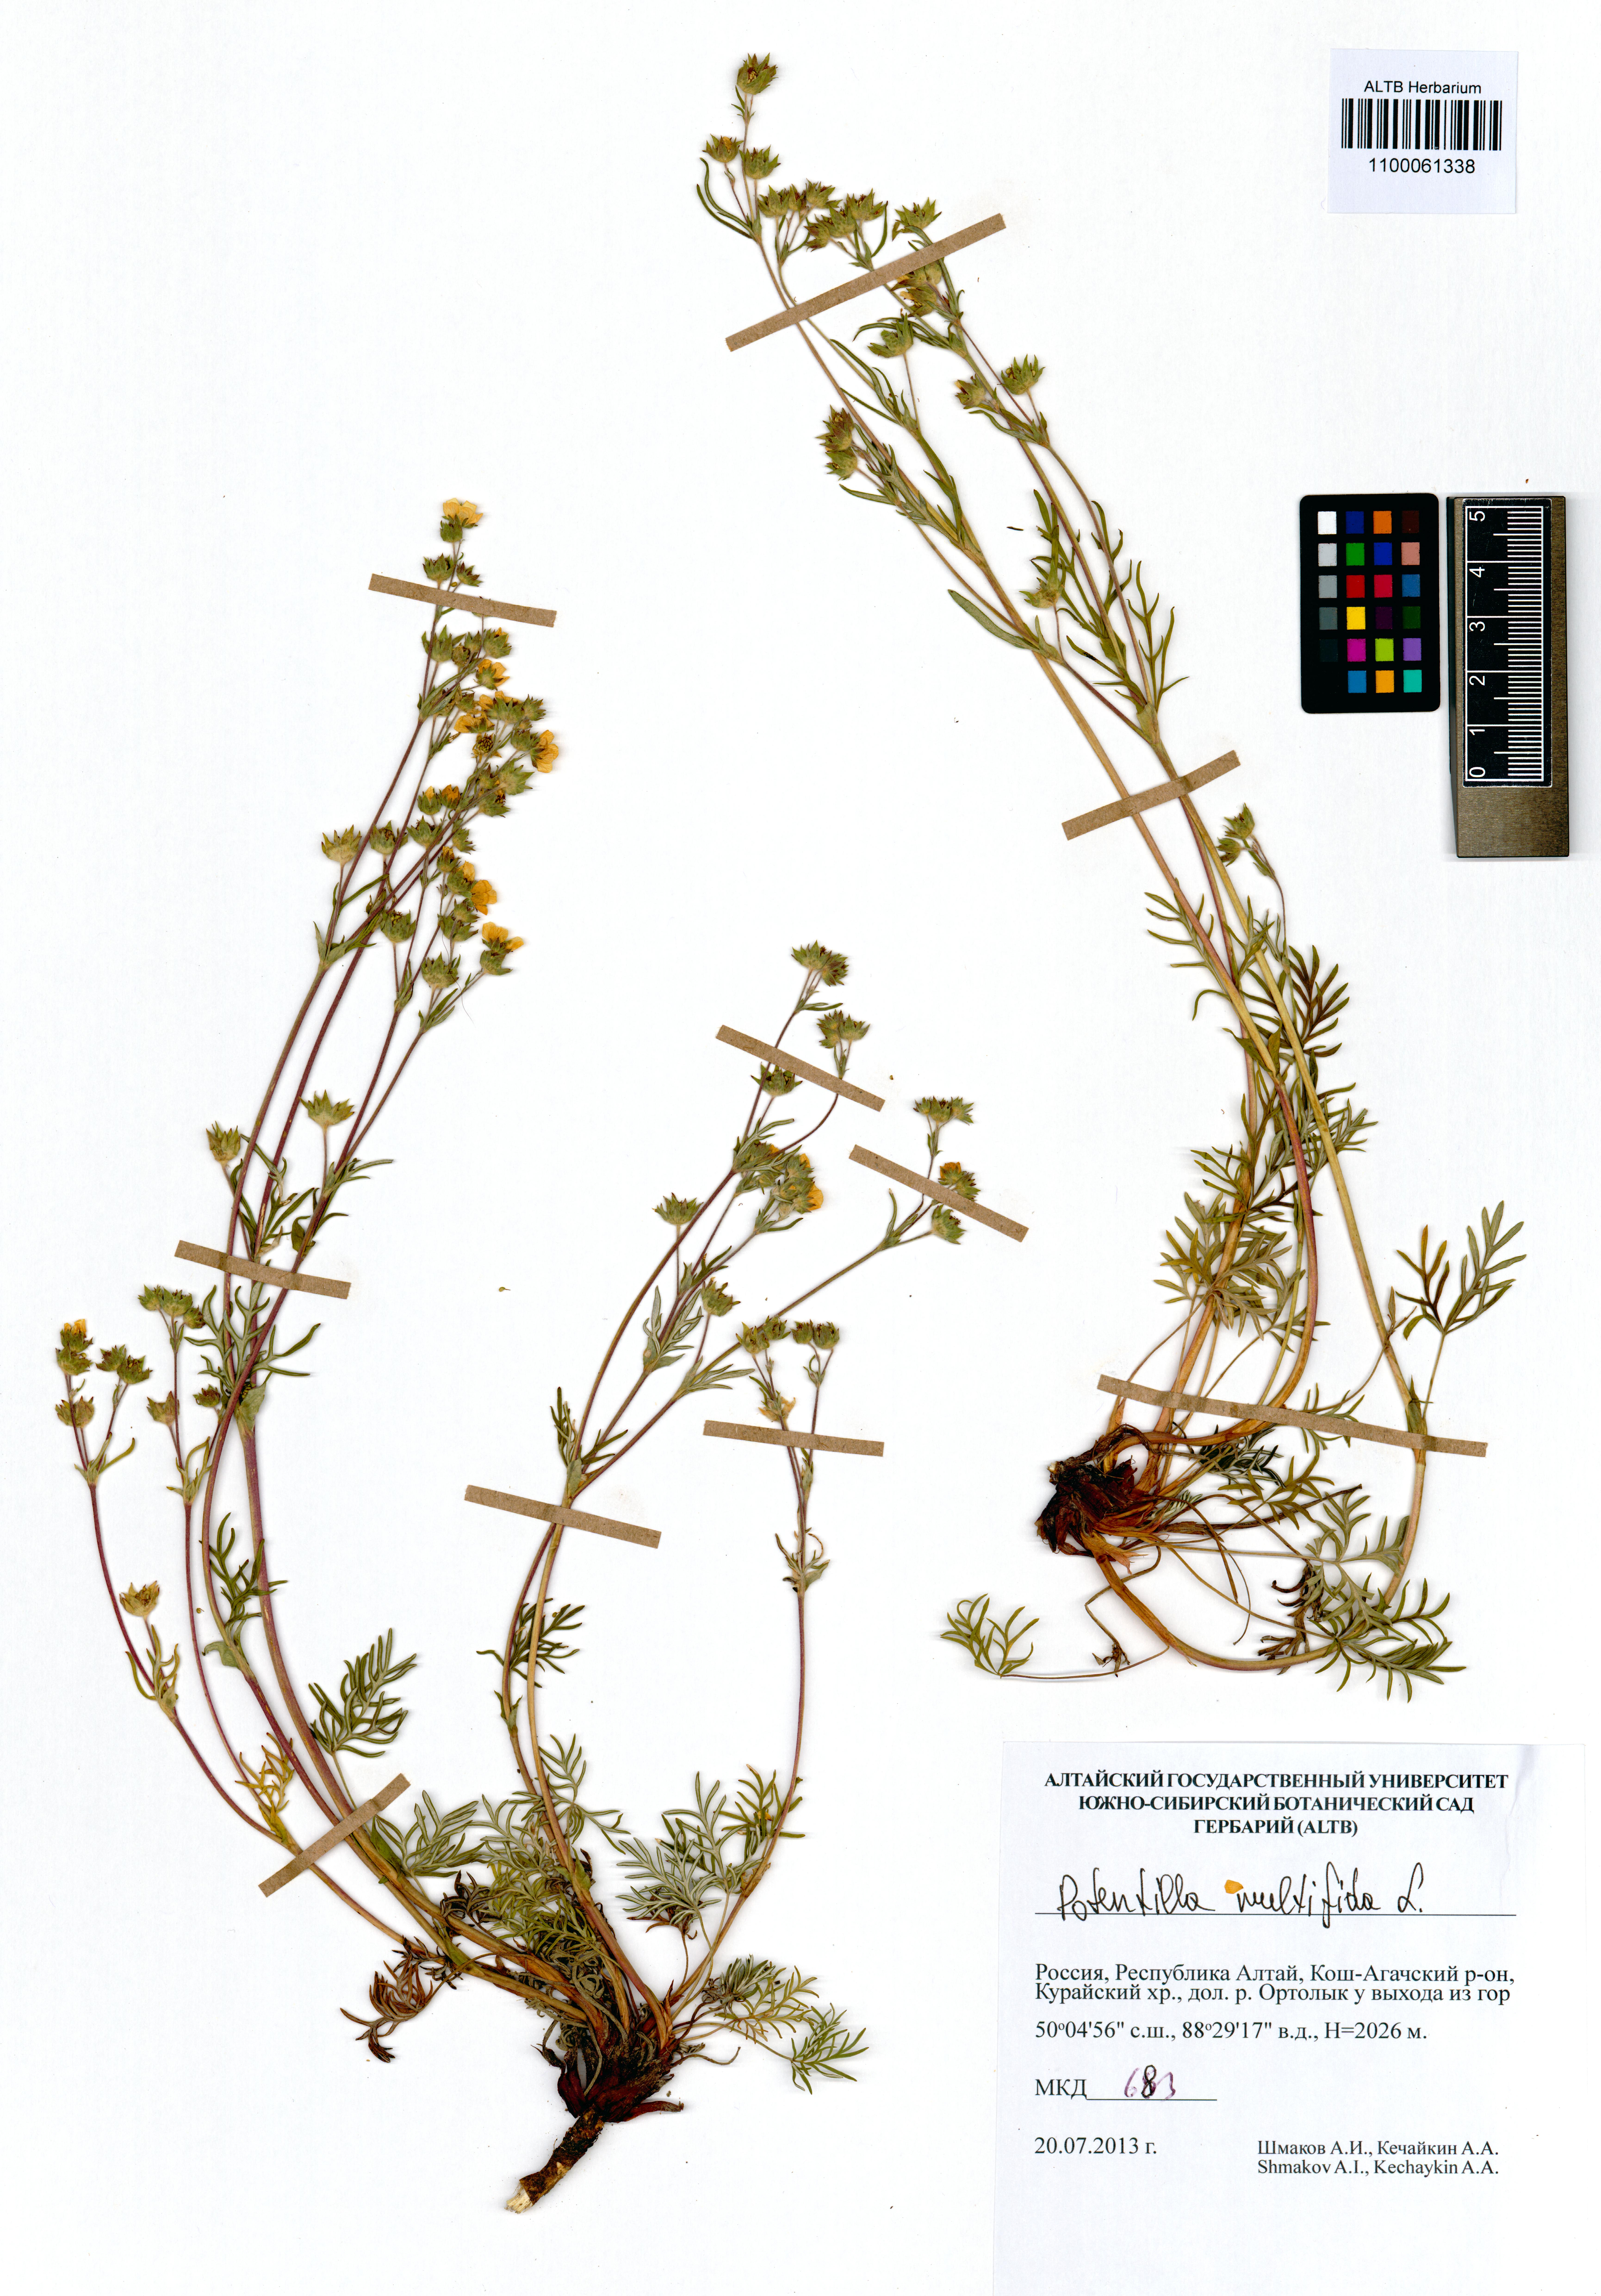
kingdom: Plantae
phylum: Tracheophyta
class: Magnoliopsida
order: Rosales
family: Rosaceae
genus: Potentilla
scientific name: Potentilla multifida
